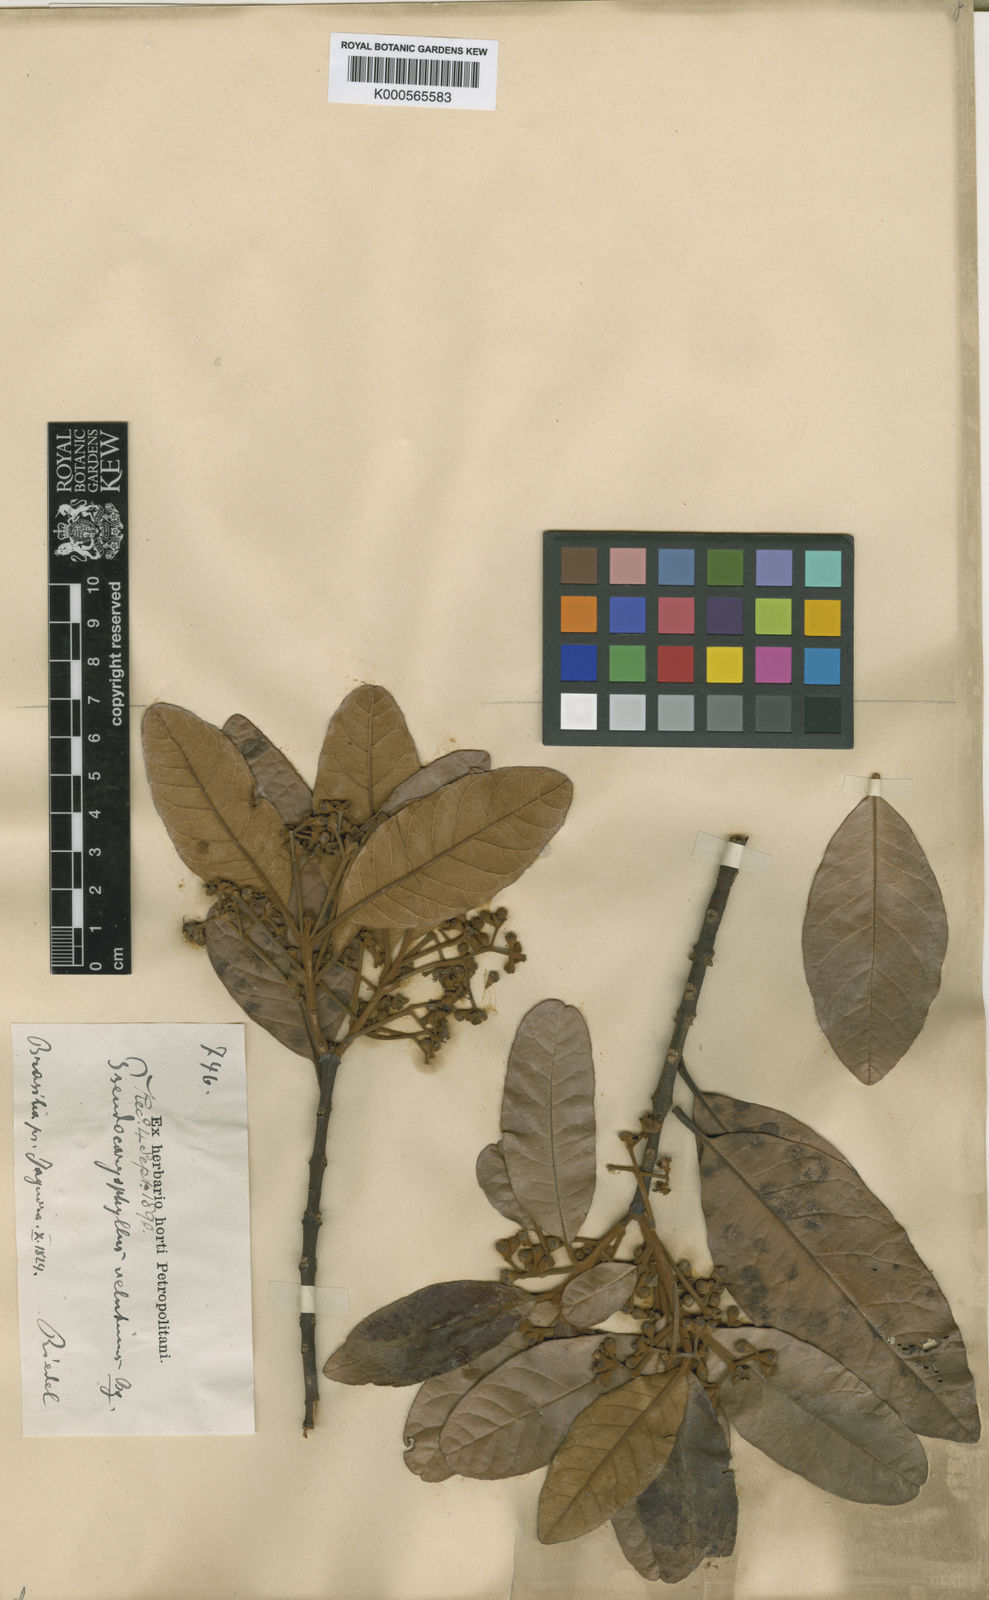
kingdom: Plantae
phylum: Tracheophyta
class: Magnoliopsida
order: Myrtales
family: Myrtaceae
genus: Pimenta
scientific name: Pimenta pseudocaryophyllus
